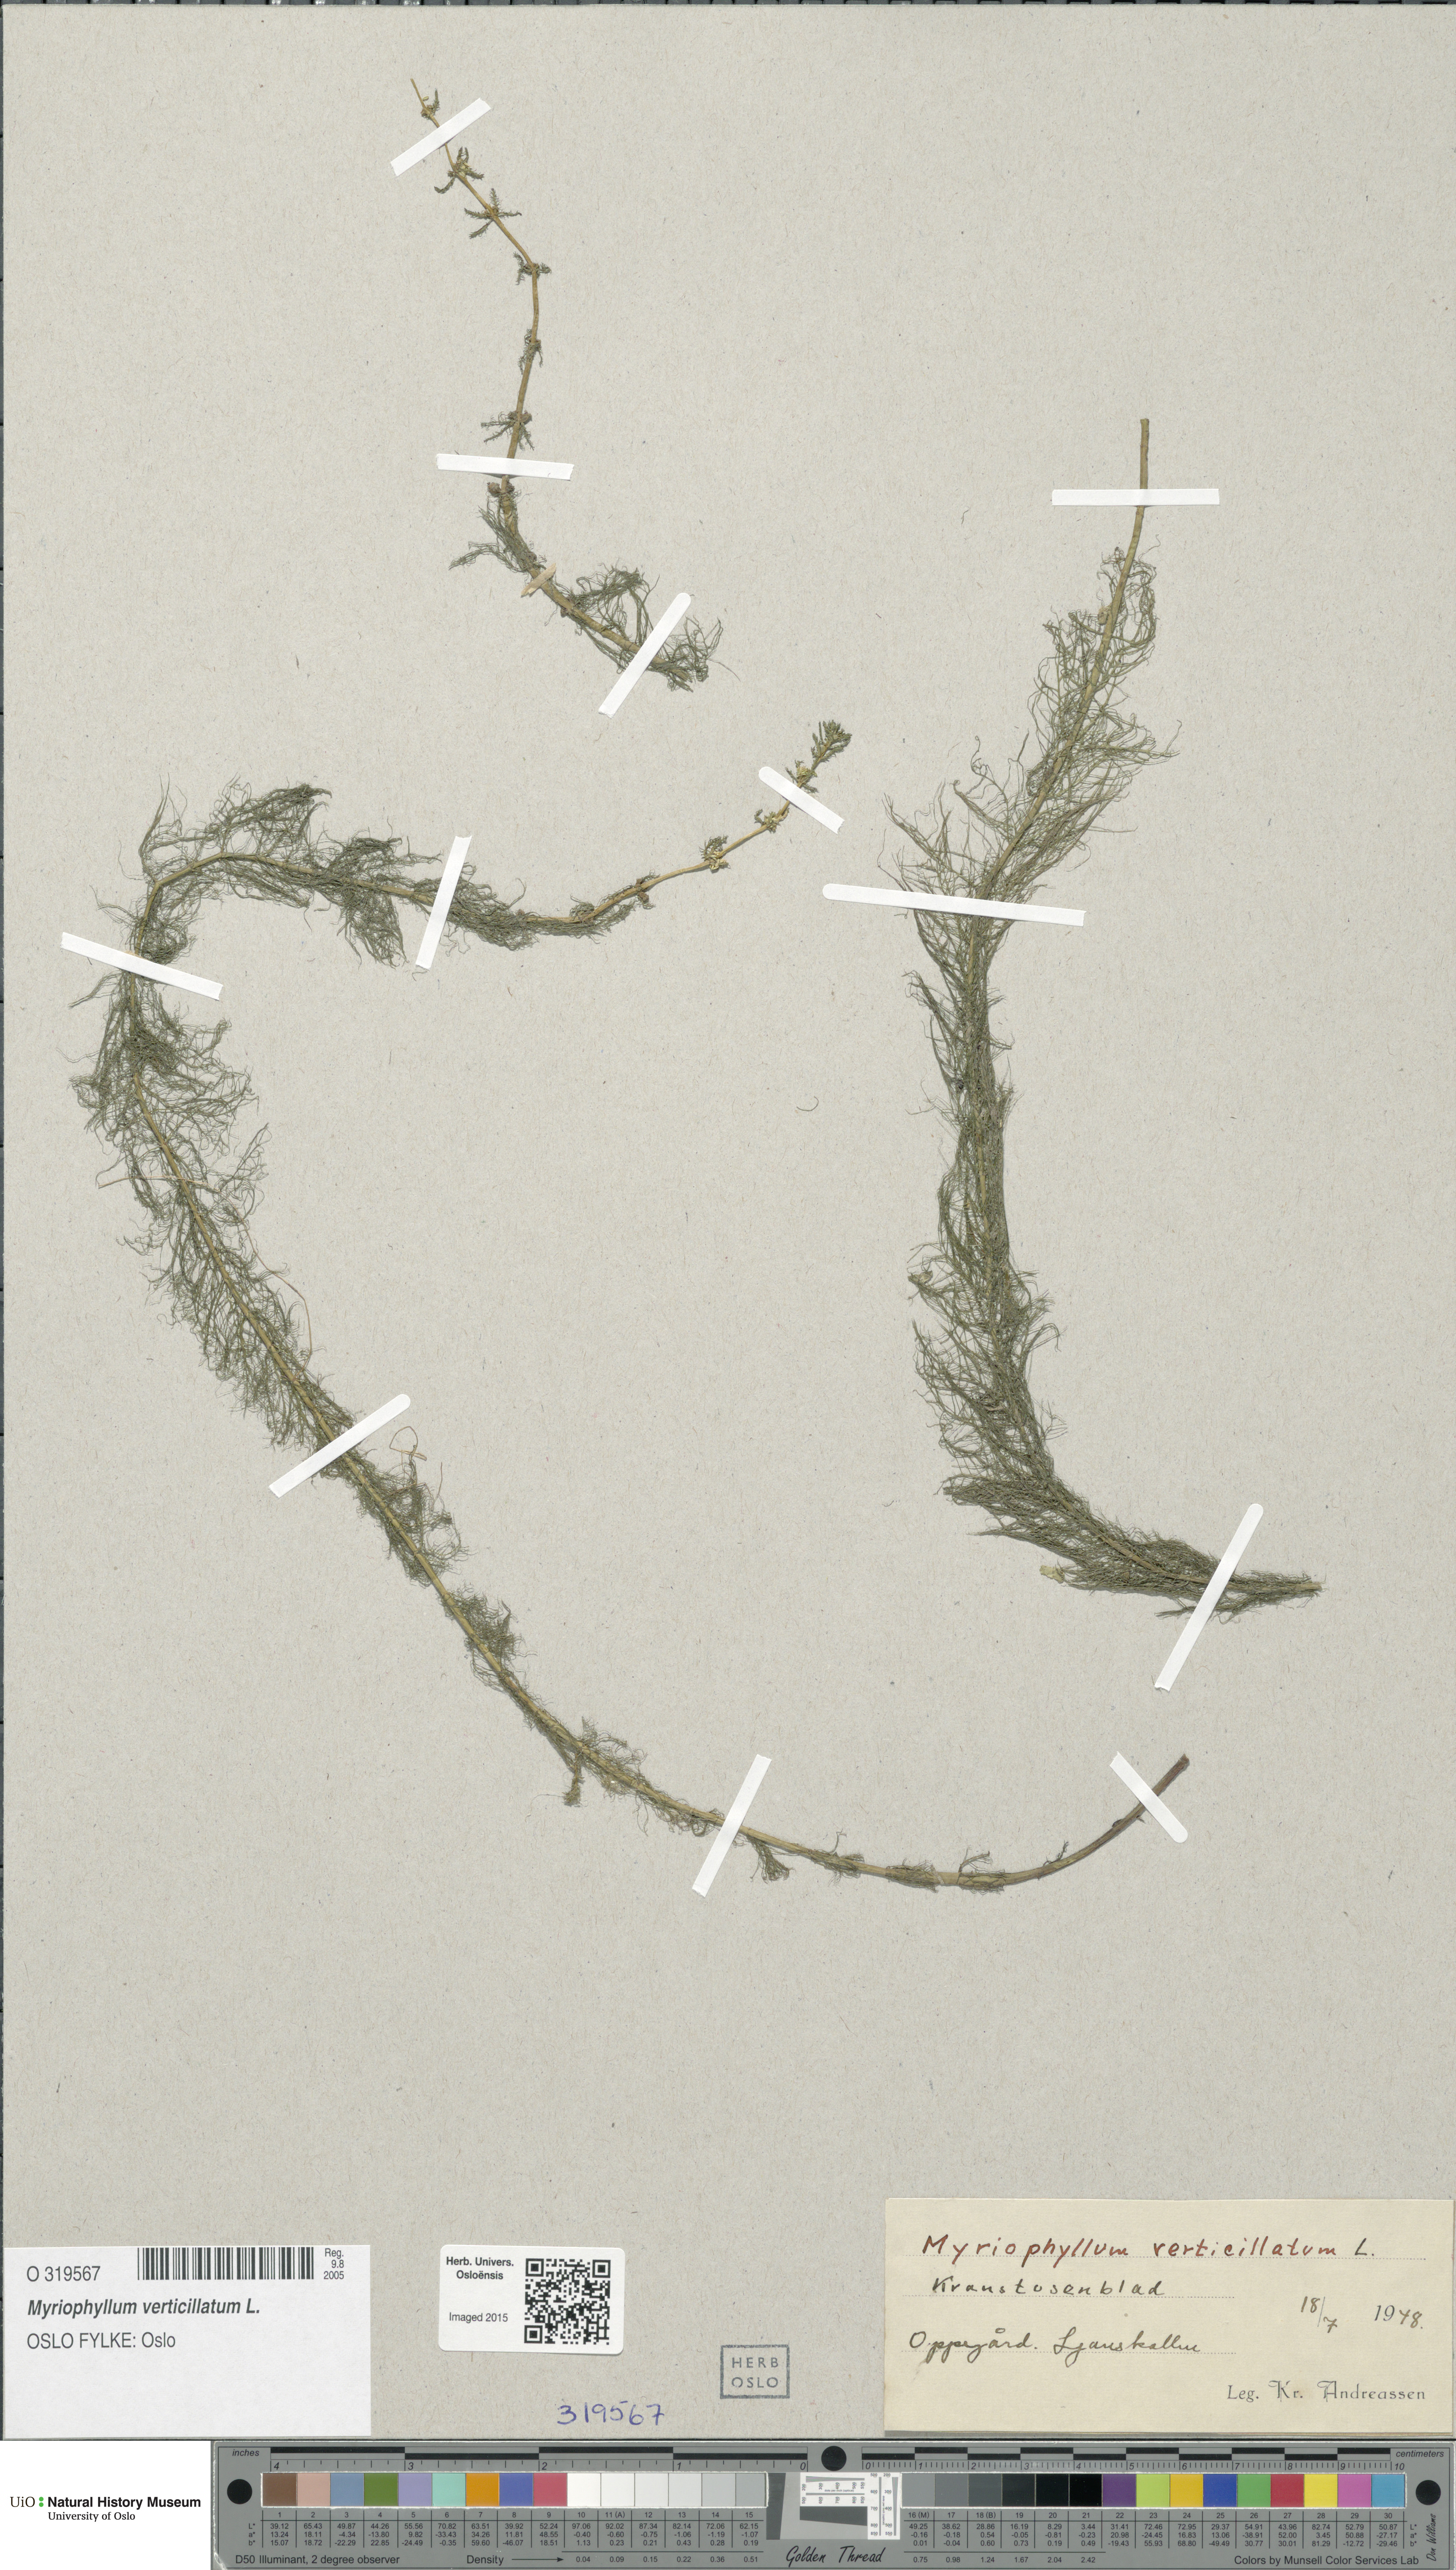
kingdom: Plantae
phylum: Tracheophyta
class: Magnoliopsida
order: Saxifragales
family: Haloragaceae
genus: Myriophyllum
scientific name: Myriophyllum verticillatum
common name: Whorled water-milfoil
